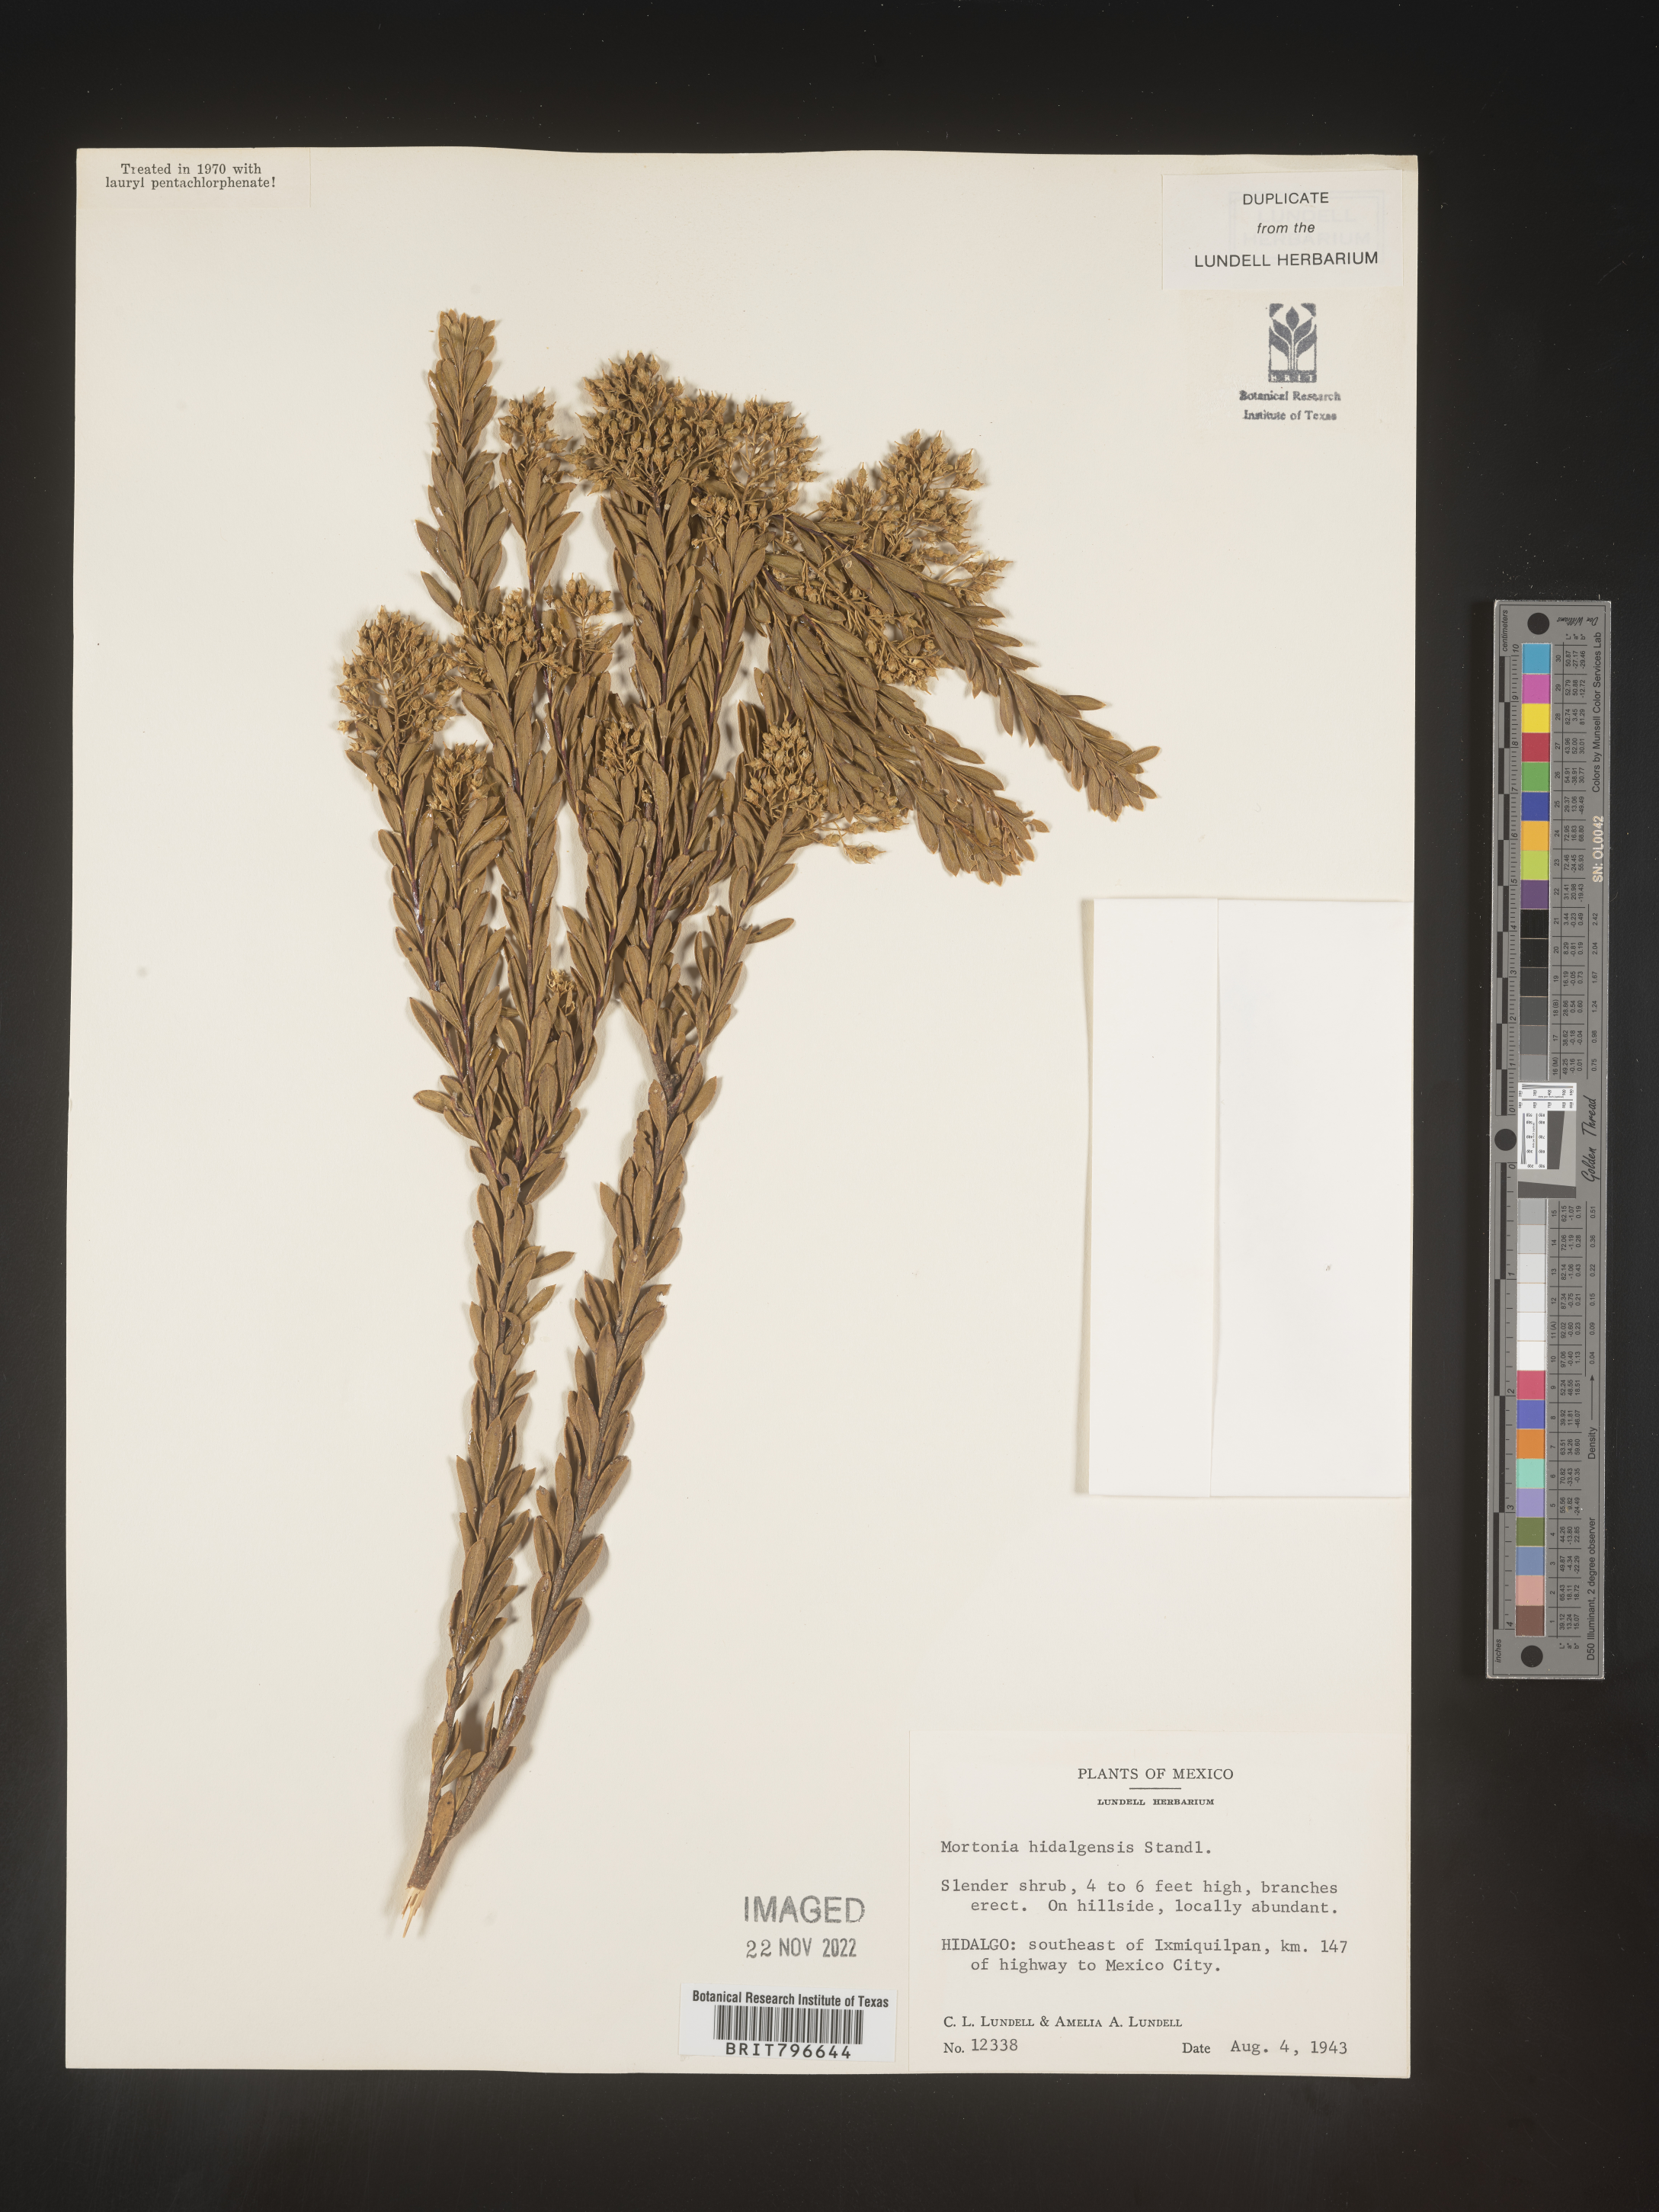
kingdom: Plantae
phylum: Tracheophyta
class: Magnoliopsida
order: Celastrales
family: Celastraceae
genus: Mortonia
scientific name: Mortonia
